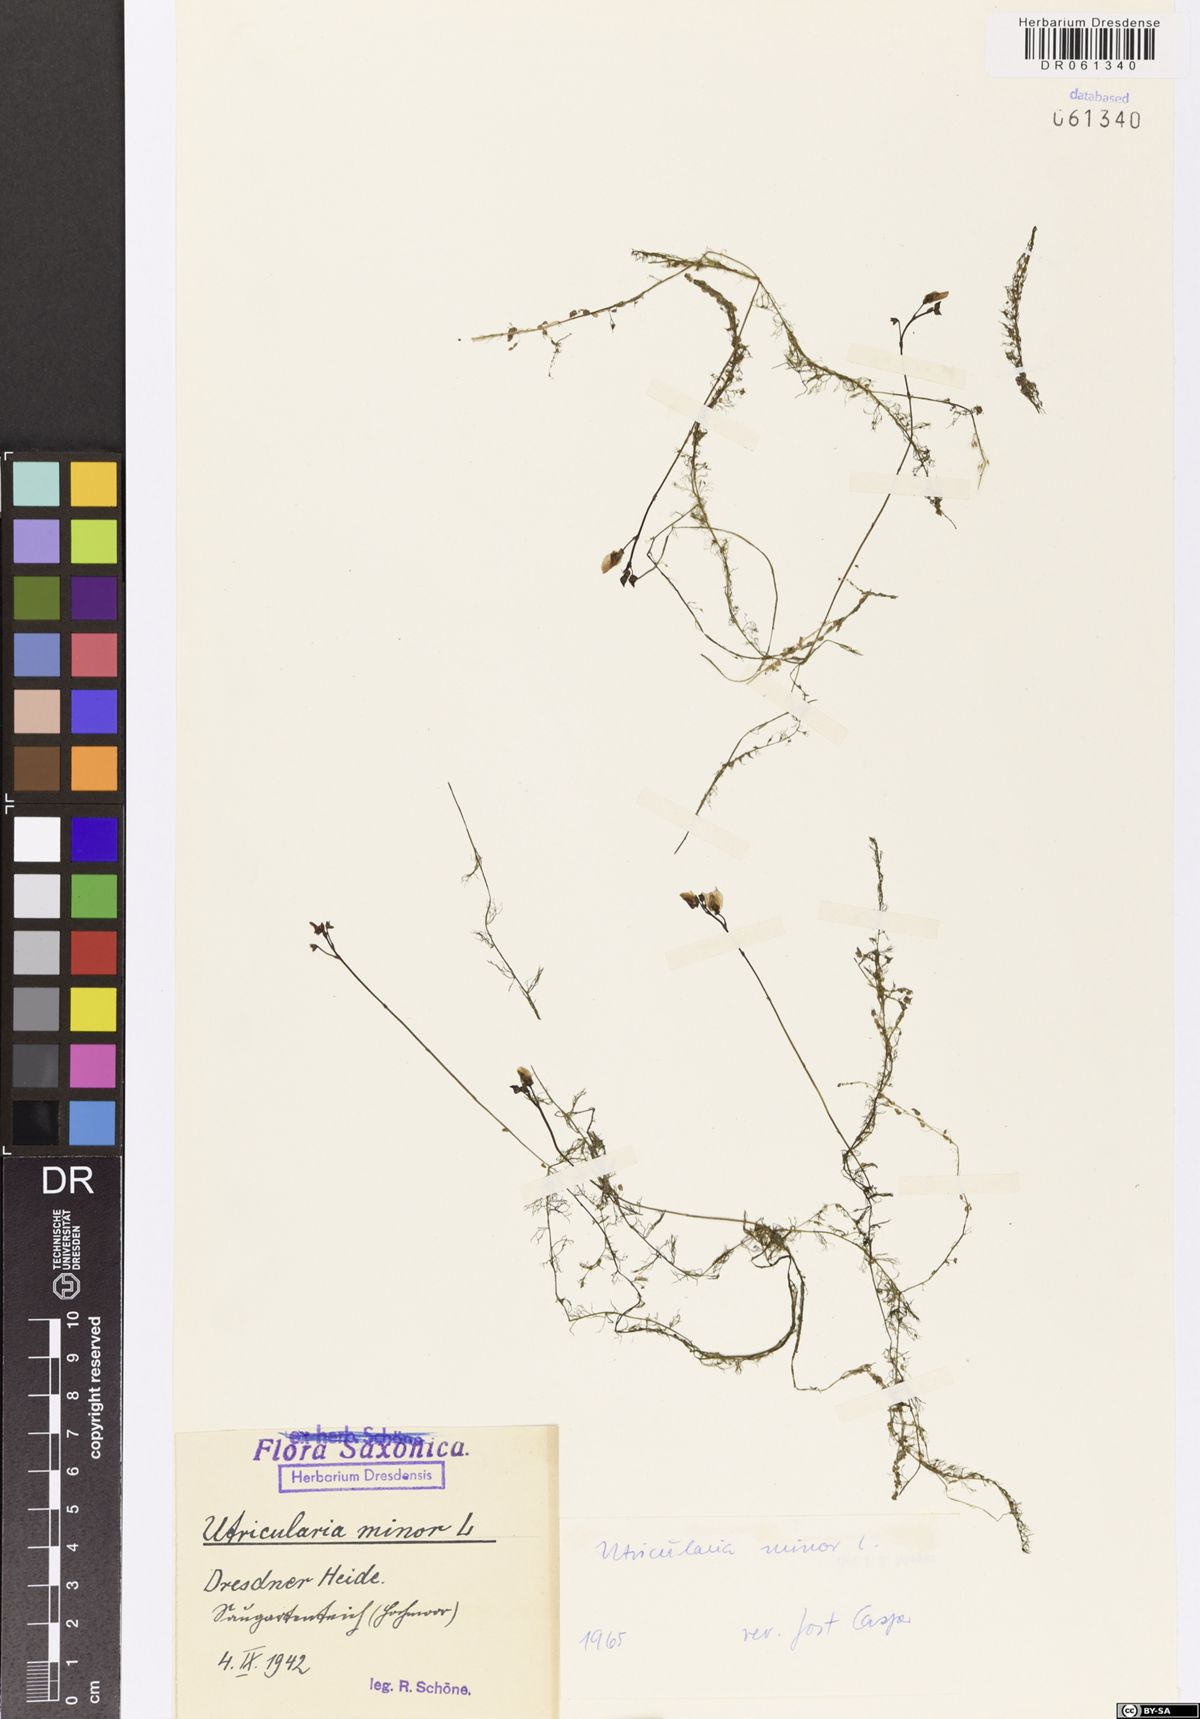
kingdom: Plantae
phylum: Tracheophyta
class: Magnoliopsida
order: Lamiales
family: Lentibulariaceae
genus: Utricularia
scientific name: Utricularia minor
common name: Lesser bladderwort
